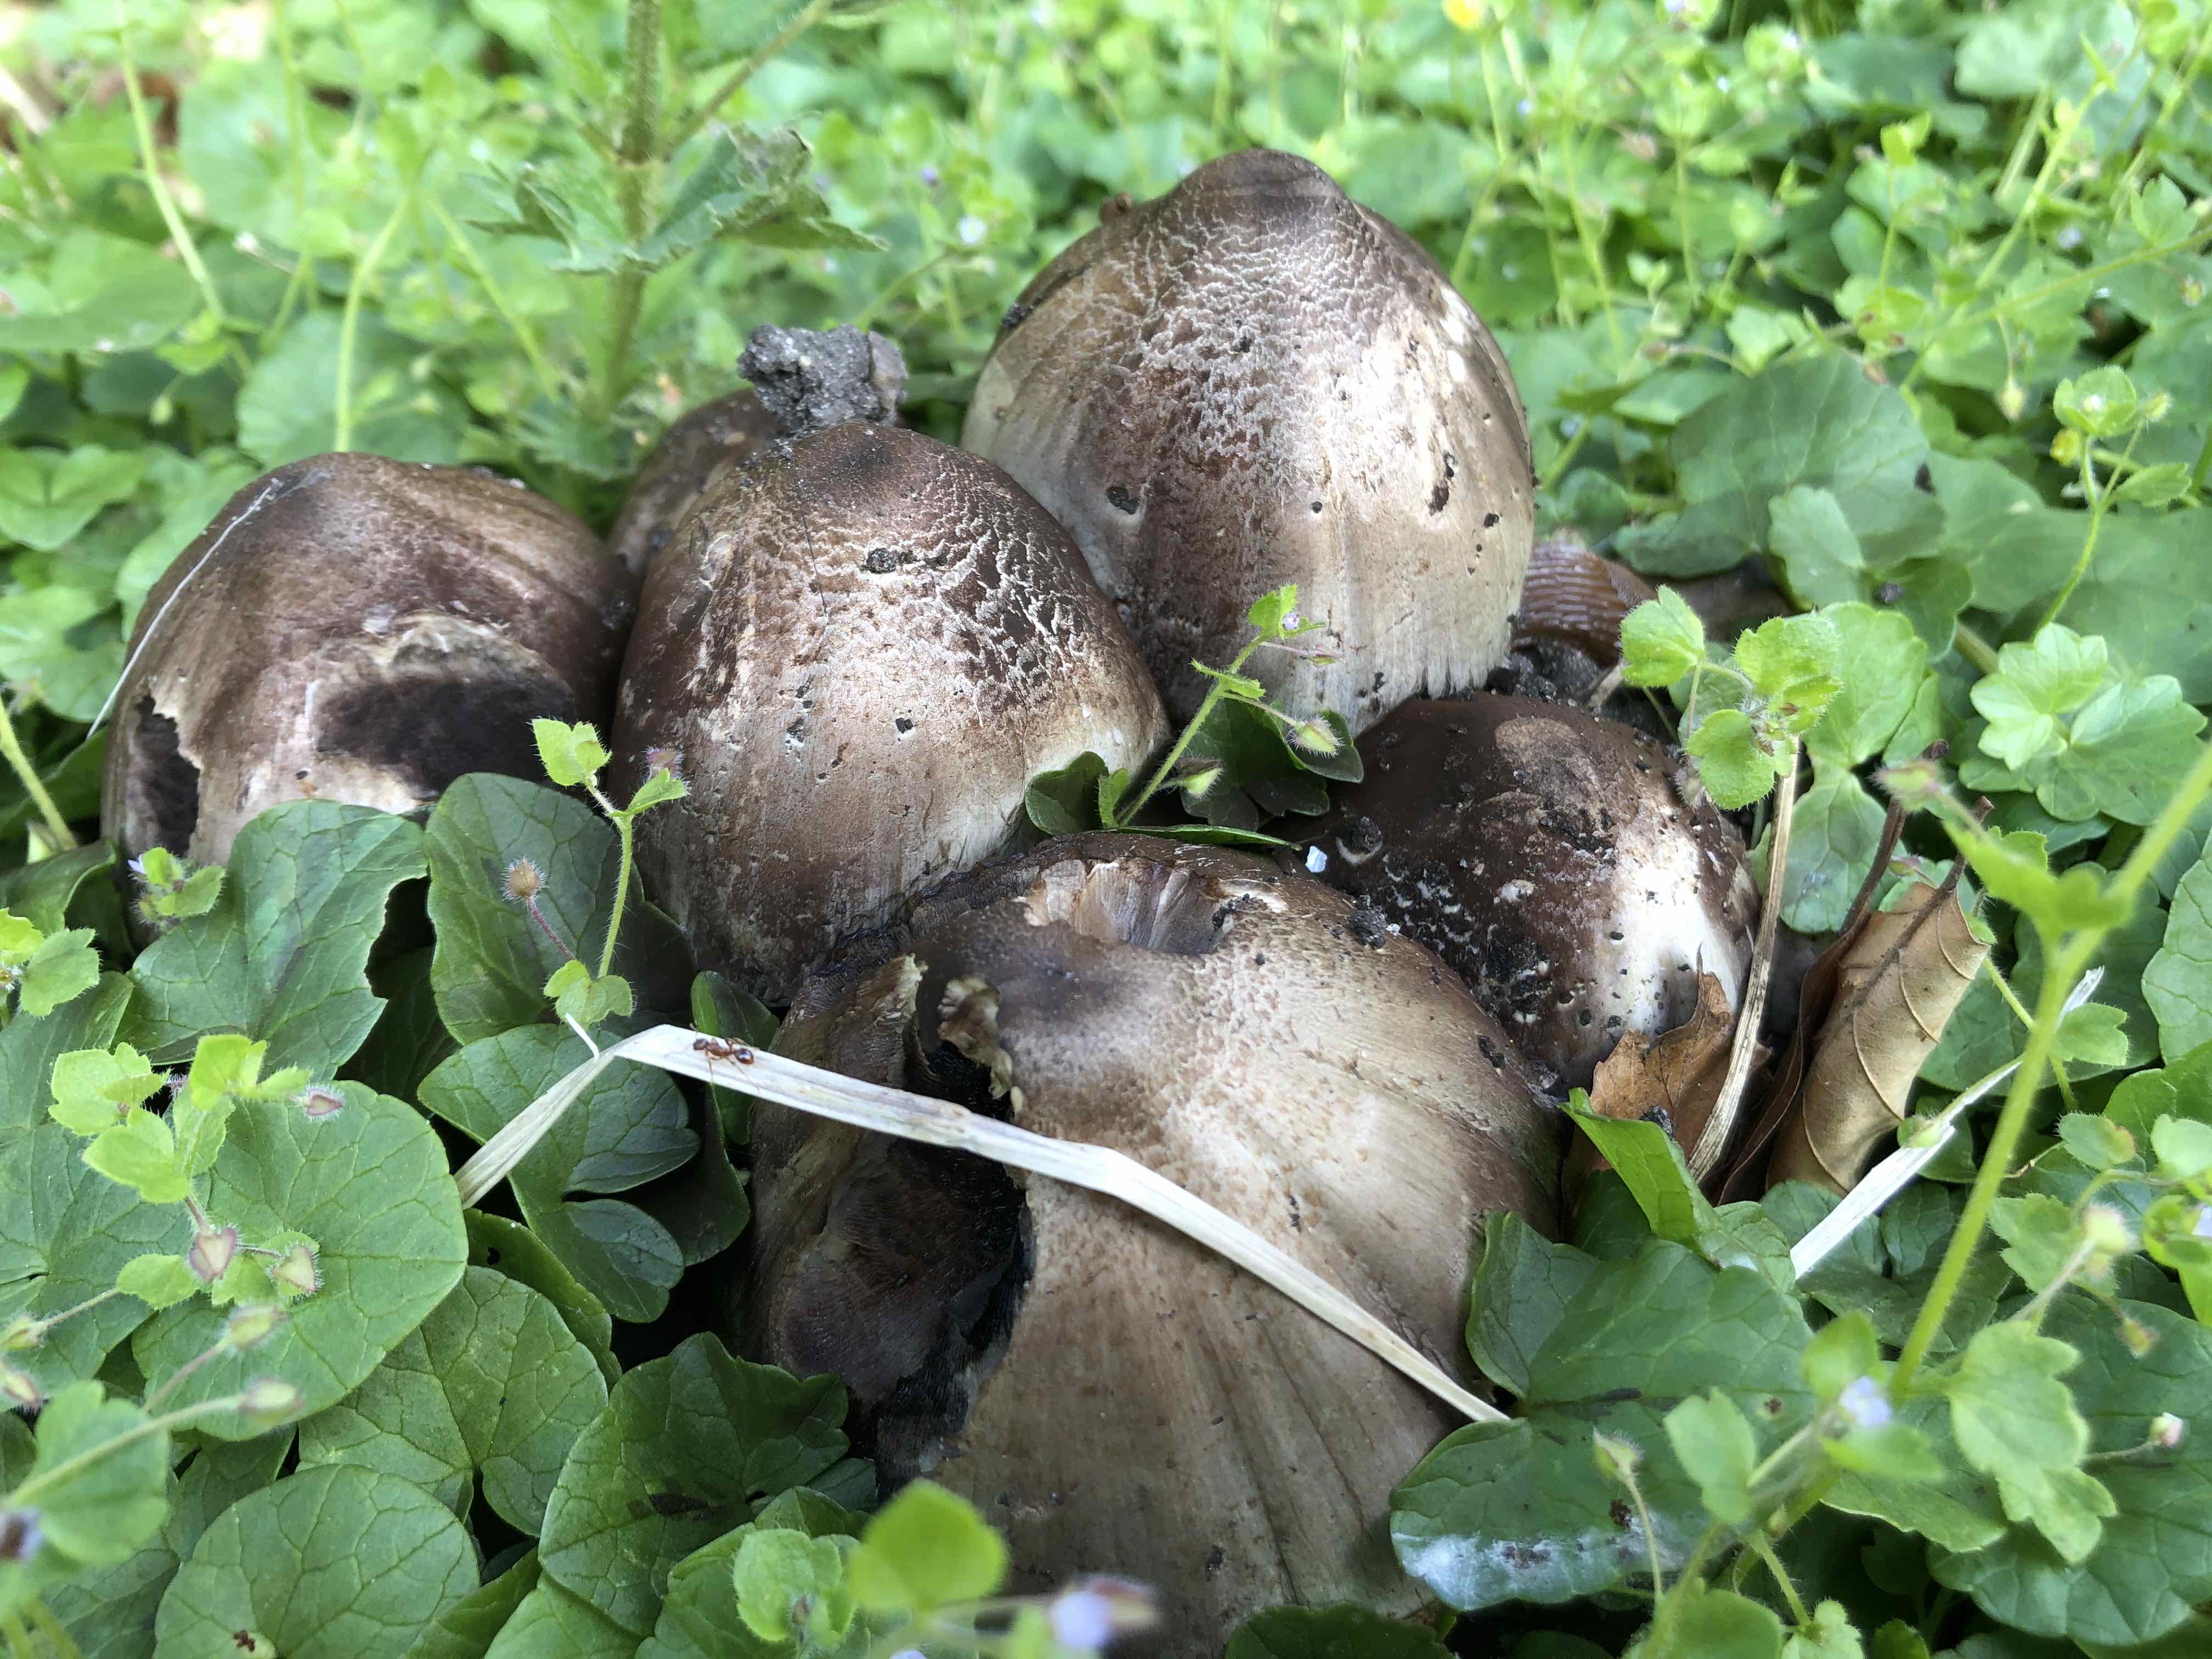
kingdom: Fungi
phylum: Basidiomycota
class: Agaricomycetes
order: Agaricales
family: Psathyrellaceae
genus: Coprinopsis
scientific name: Coprinopsis atramentaria
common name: almindelig blækhat
